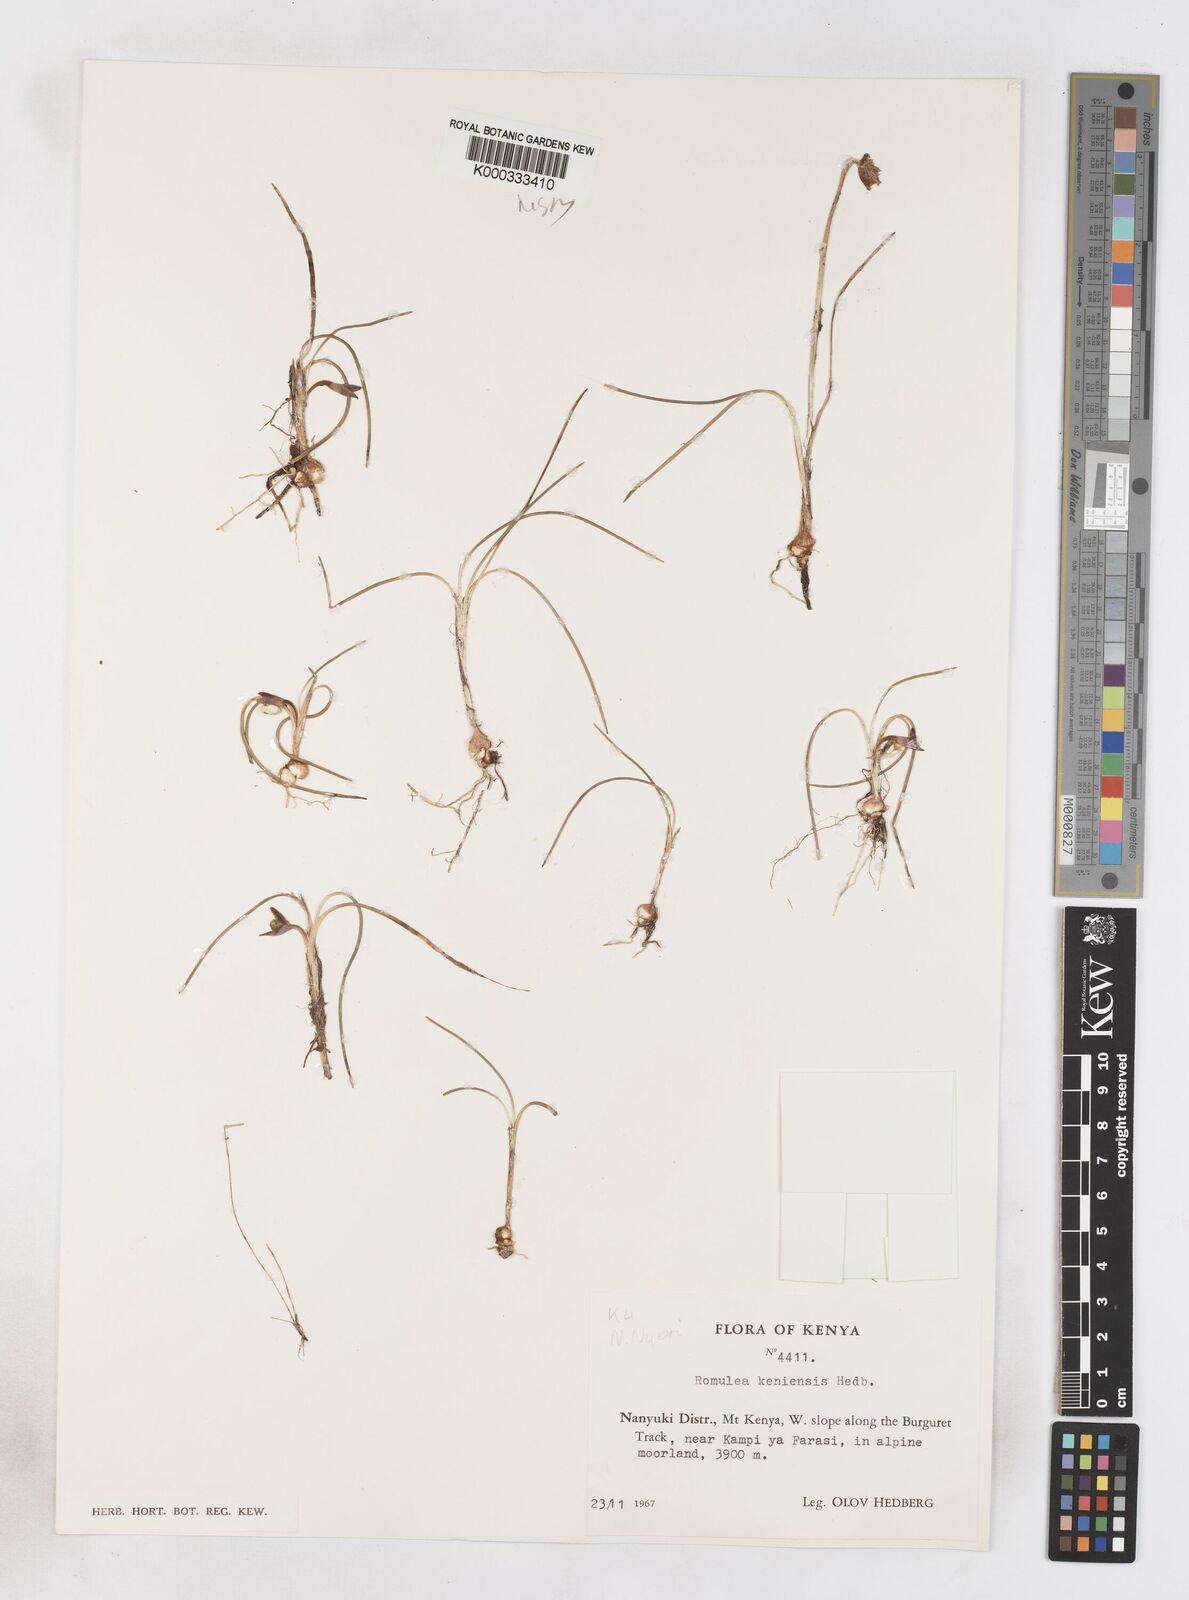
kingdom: Plantae
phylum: Tracheophyta
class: Liliopsida
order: Asparagales
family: Iridaceae
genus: Romulea
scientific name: Romulea congoensis
